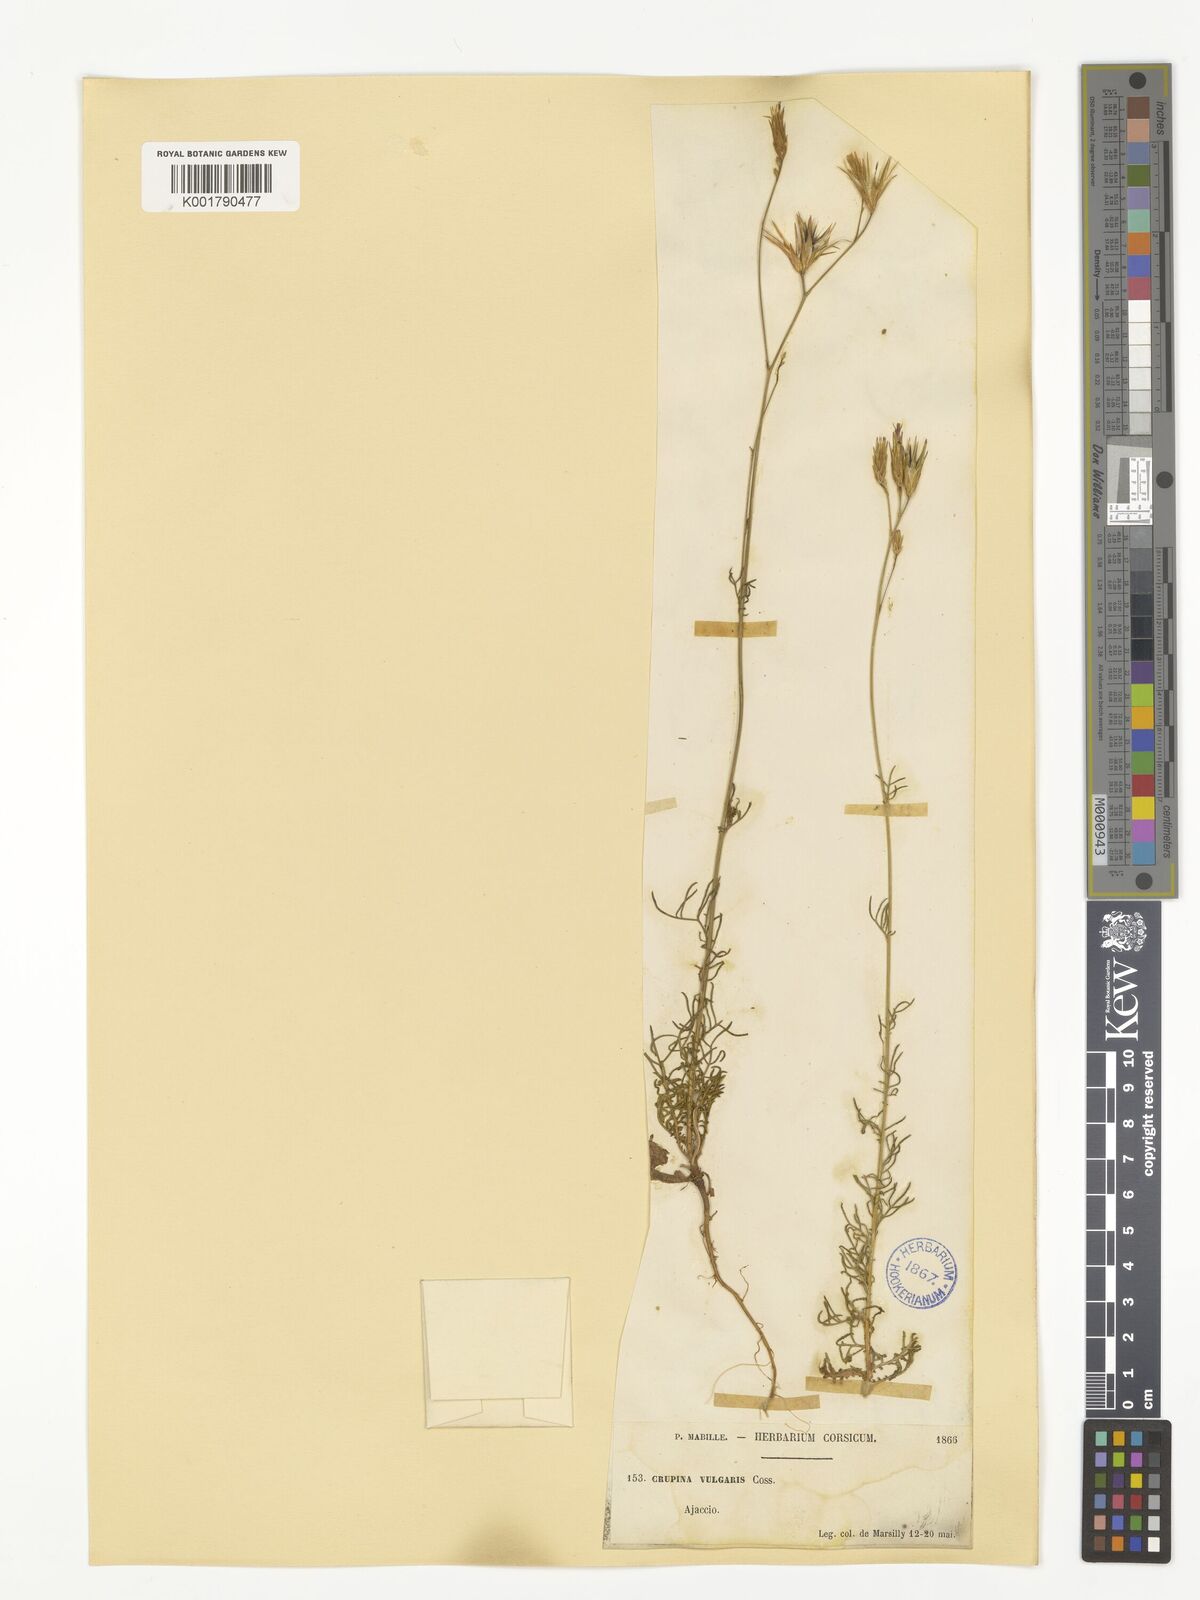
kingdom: Plantae
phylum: Tracheophyta
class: Magnoliopsida
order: Asterales
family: Asteraceae
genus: Crupina
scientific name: Crupina vulgaris
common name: Common crupina
